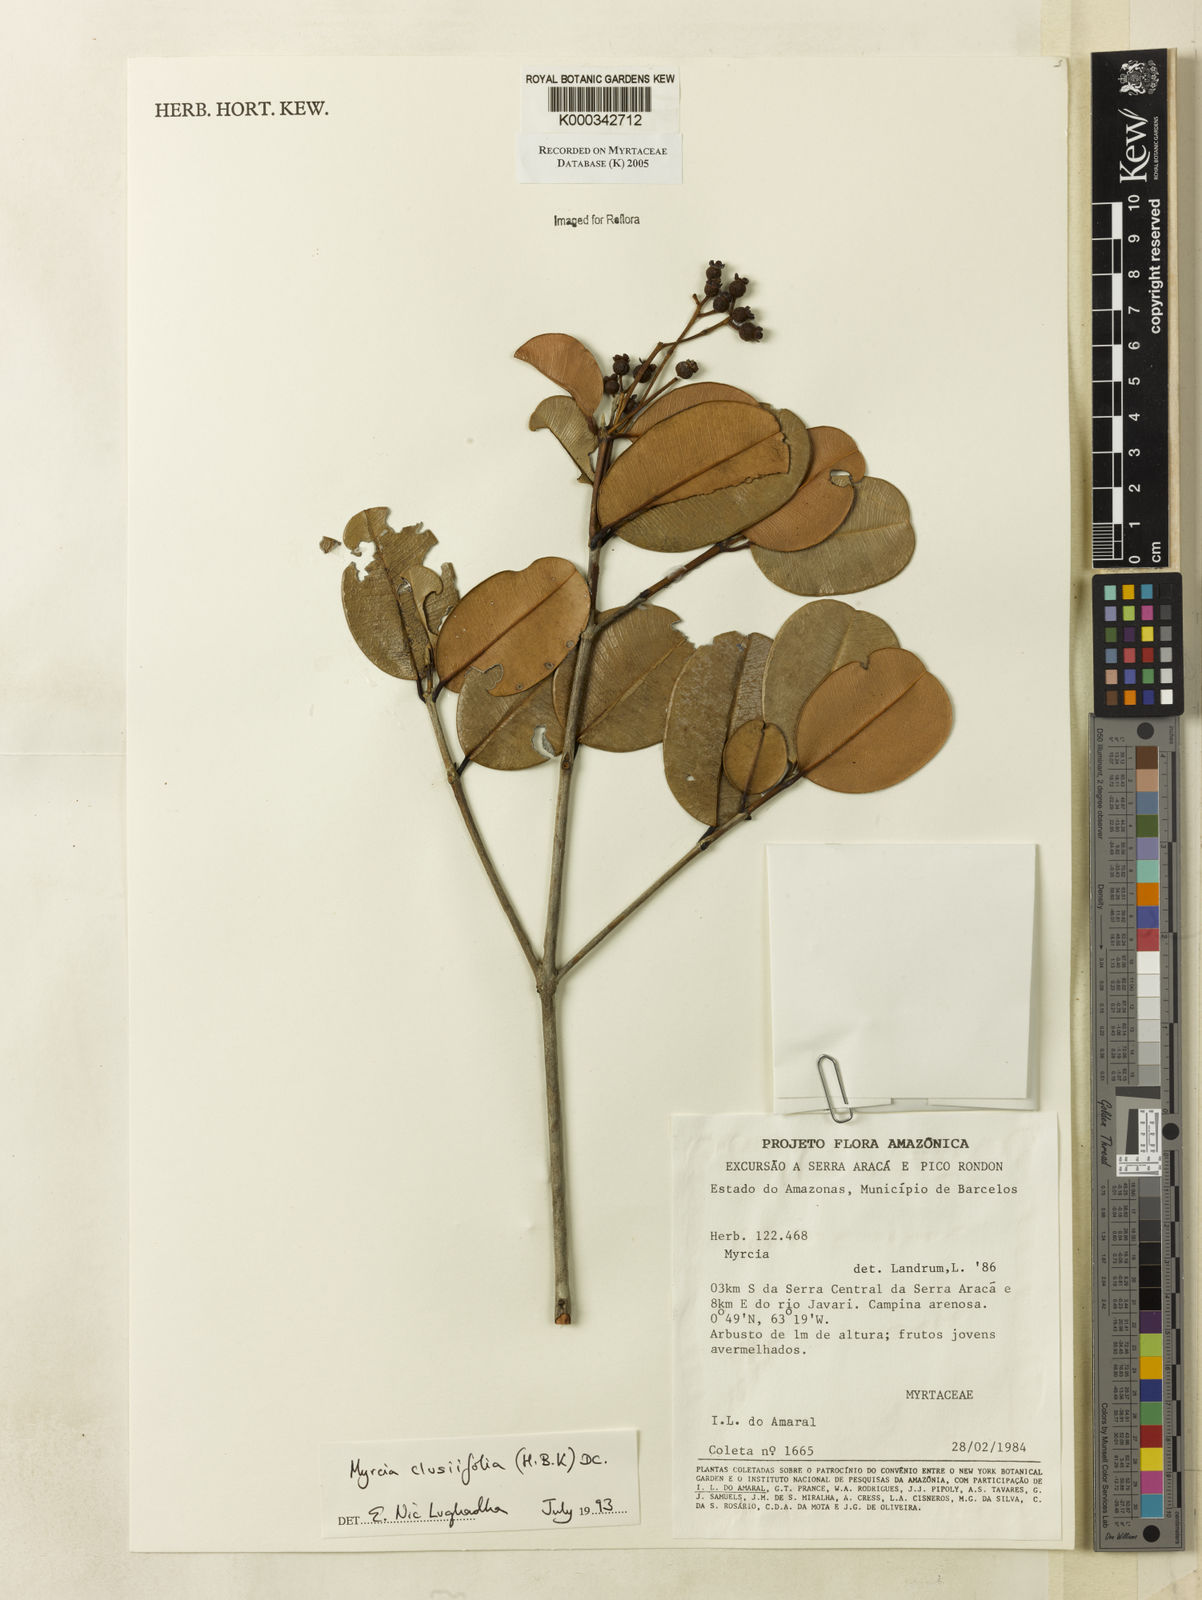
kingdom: Plantae
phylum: Tracheophyta
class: Magnoliopsida
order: Myrtales
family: Myrtaceae
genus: Myrcia
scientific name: Myrcia clusiifolia
